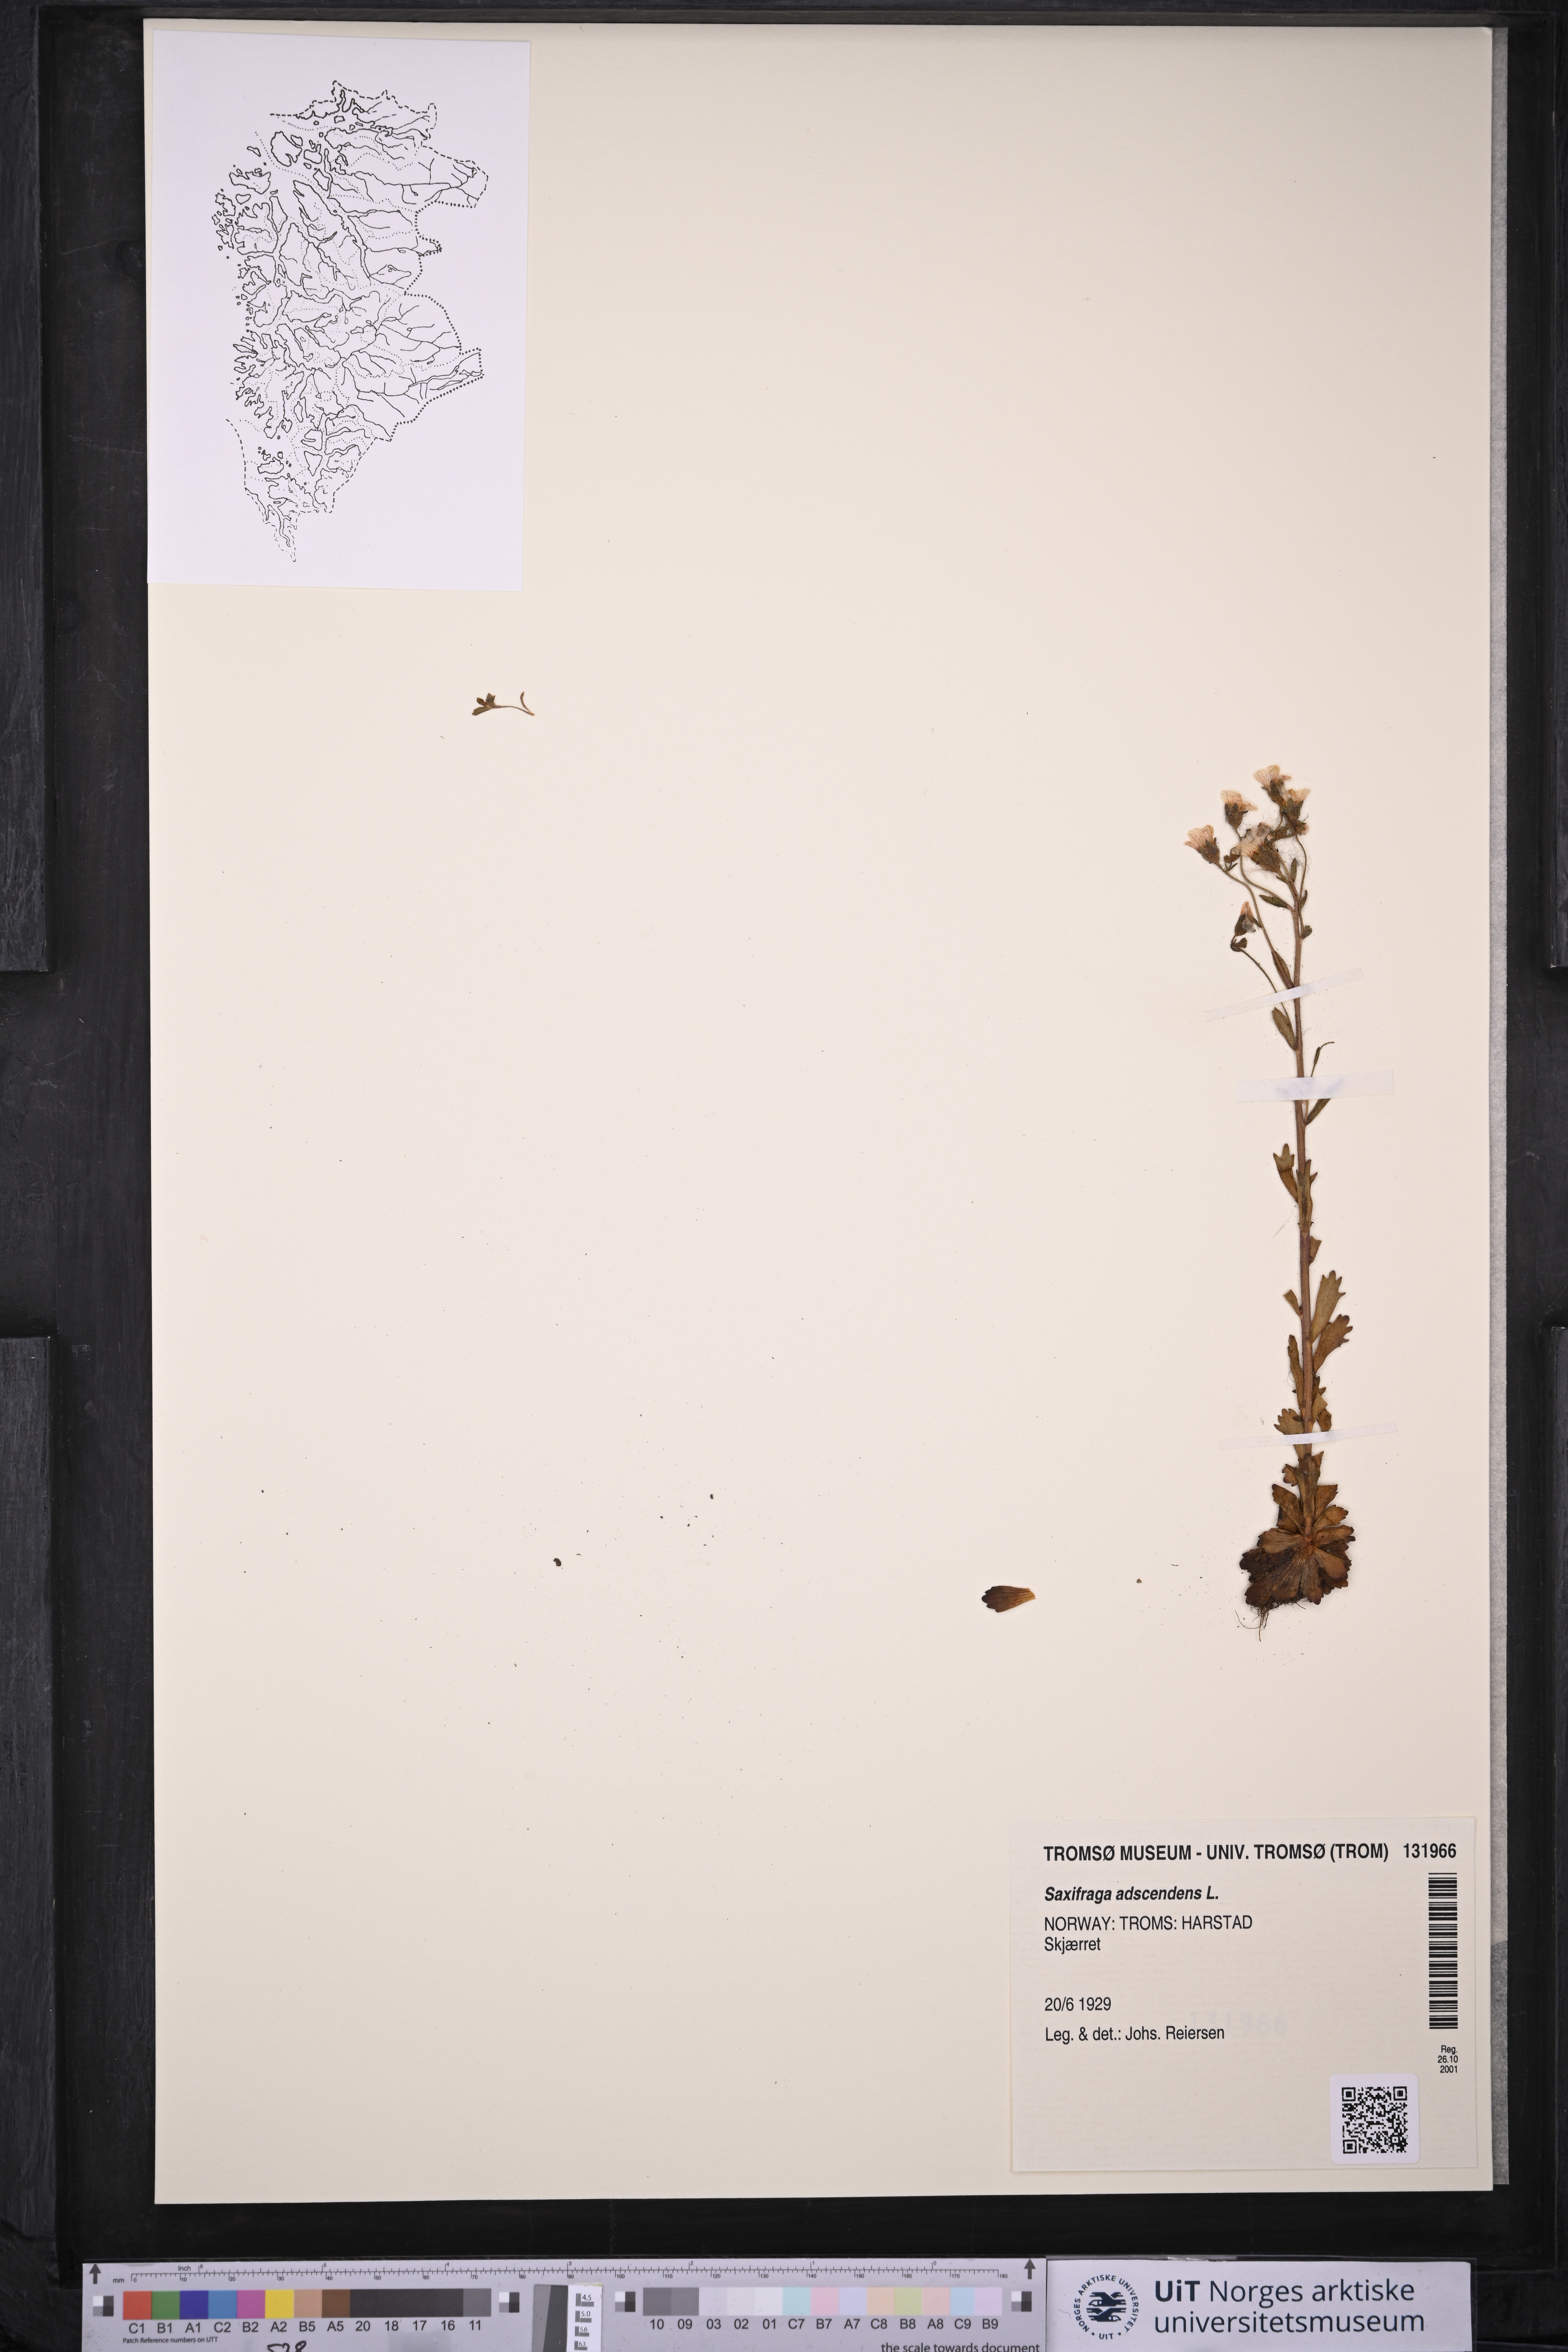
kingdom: Plantae
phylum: Tracheophyta
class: Magnoliopsida
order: Saxifragales
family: Saxifragaceae
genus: Saxifraga
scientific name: Saxifraga adscendens
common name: Ascending saxifrage
